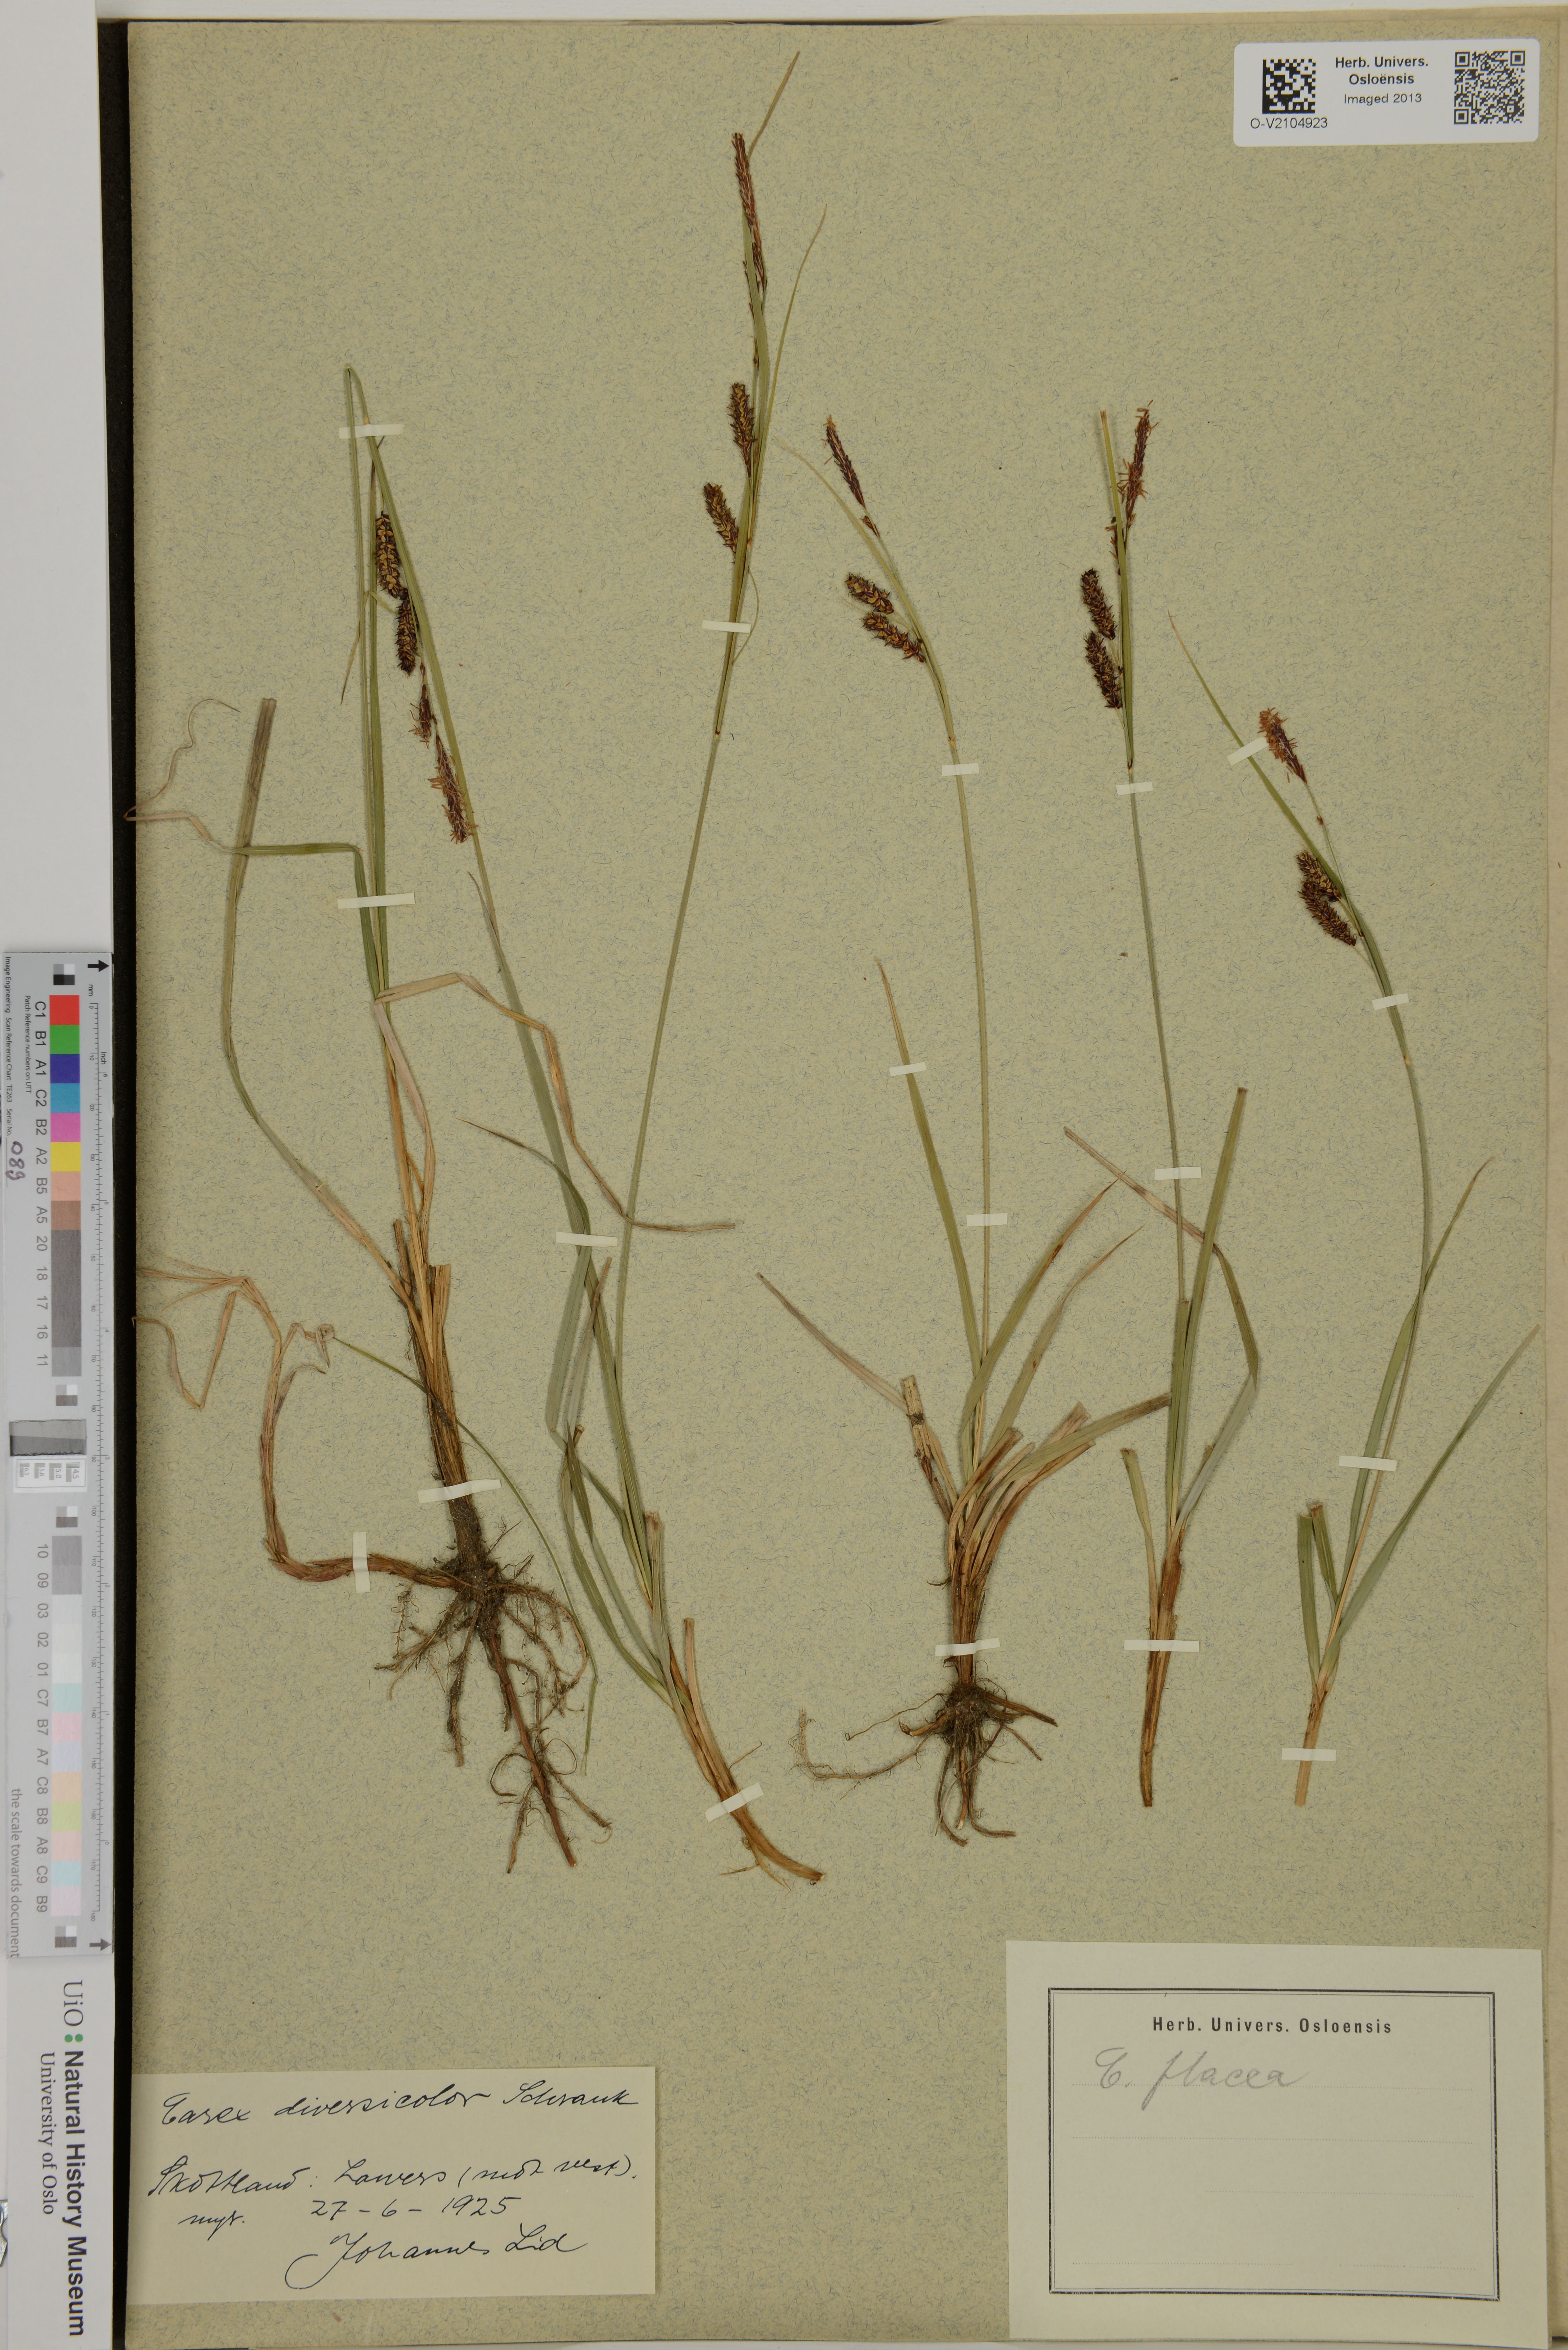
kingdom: Plantae
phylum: Tracheophyta
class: Liliopsida
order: Poales
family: Cyperaceae
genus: Carex
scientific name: Carex flacca
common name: Glaucous sedge
